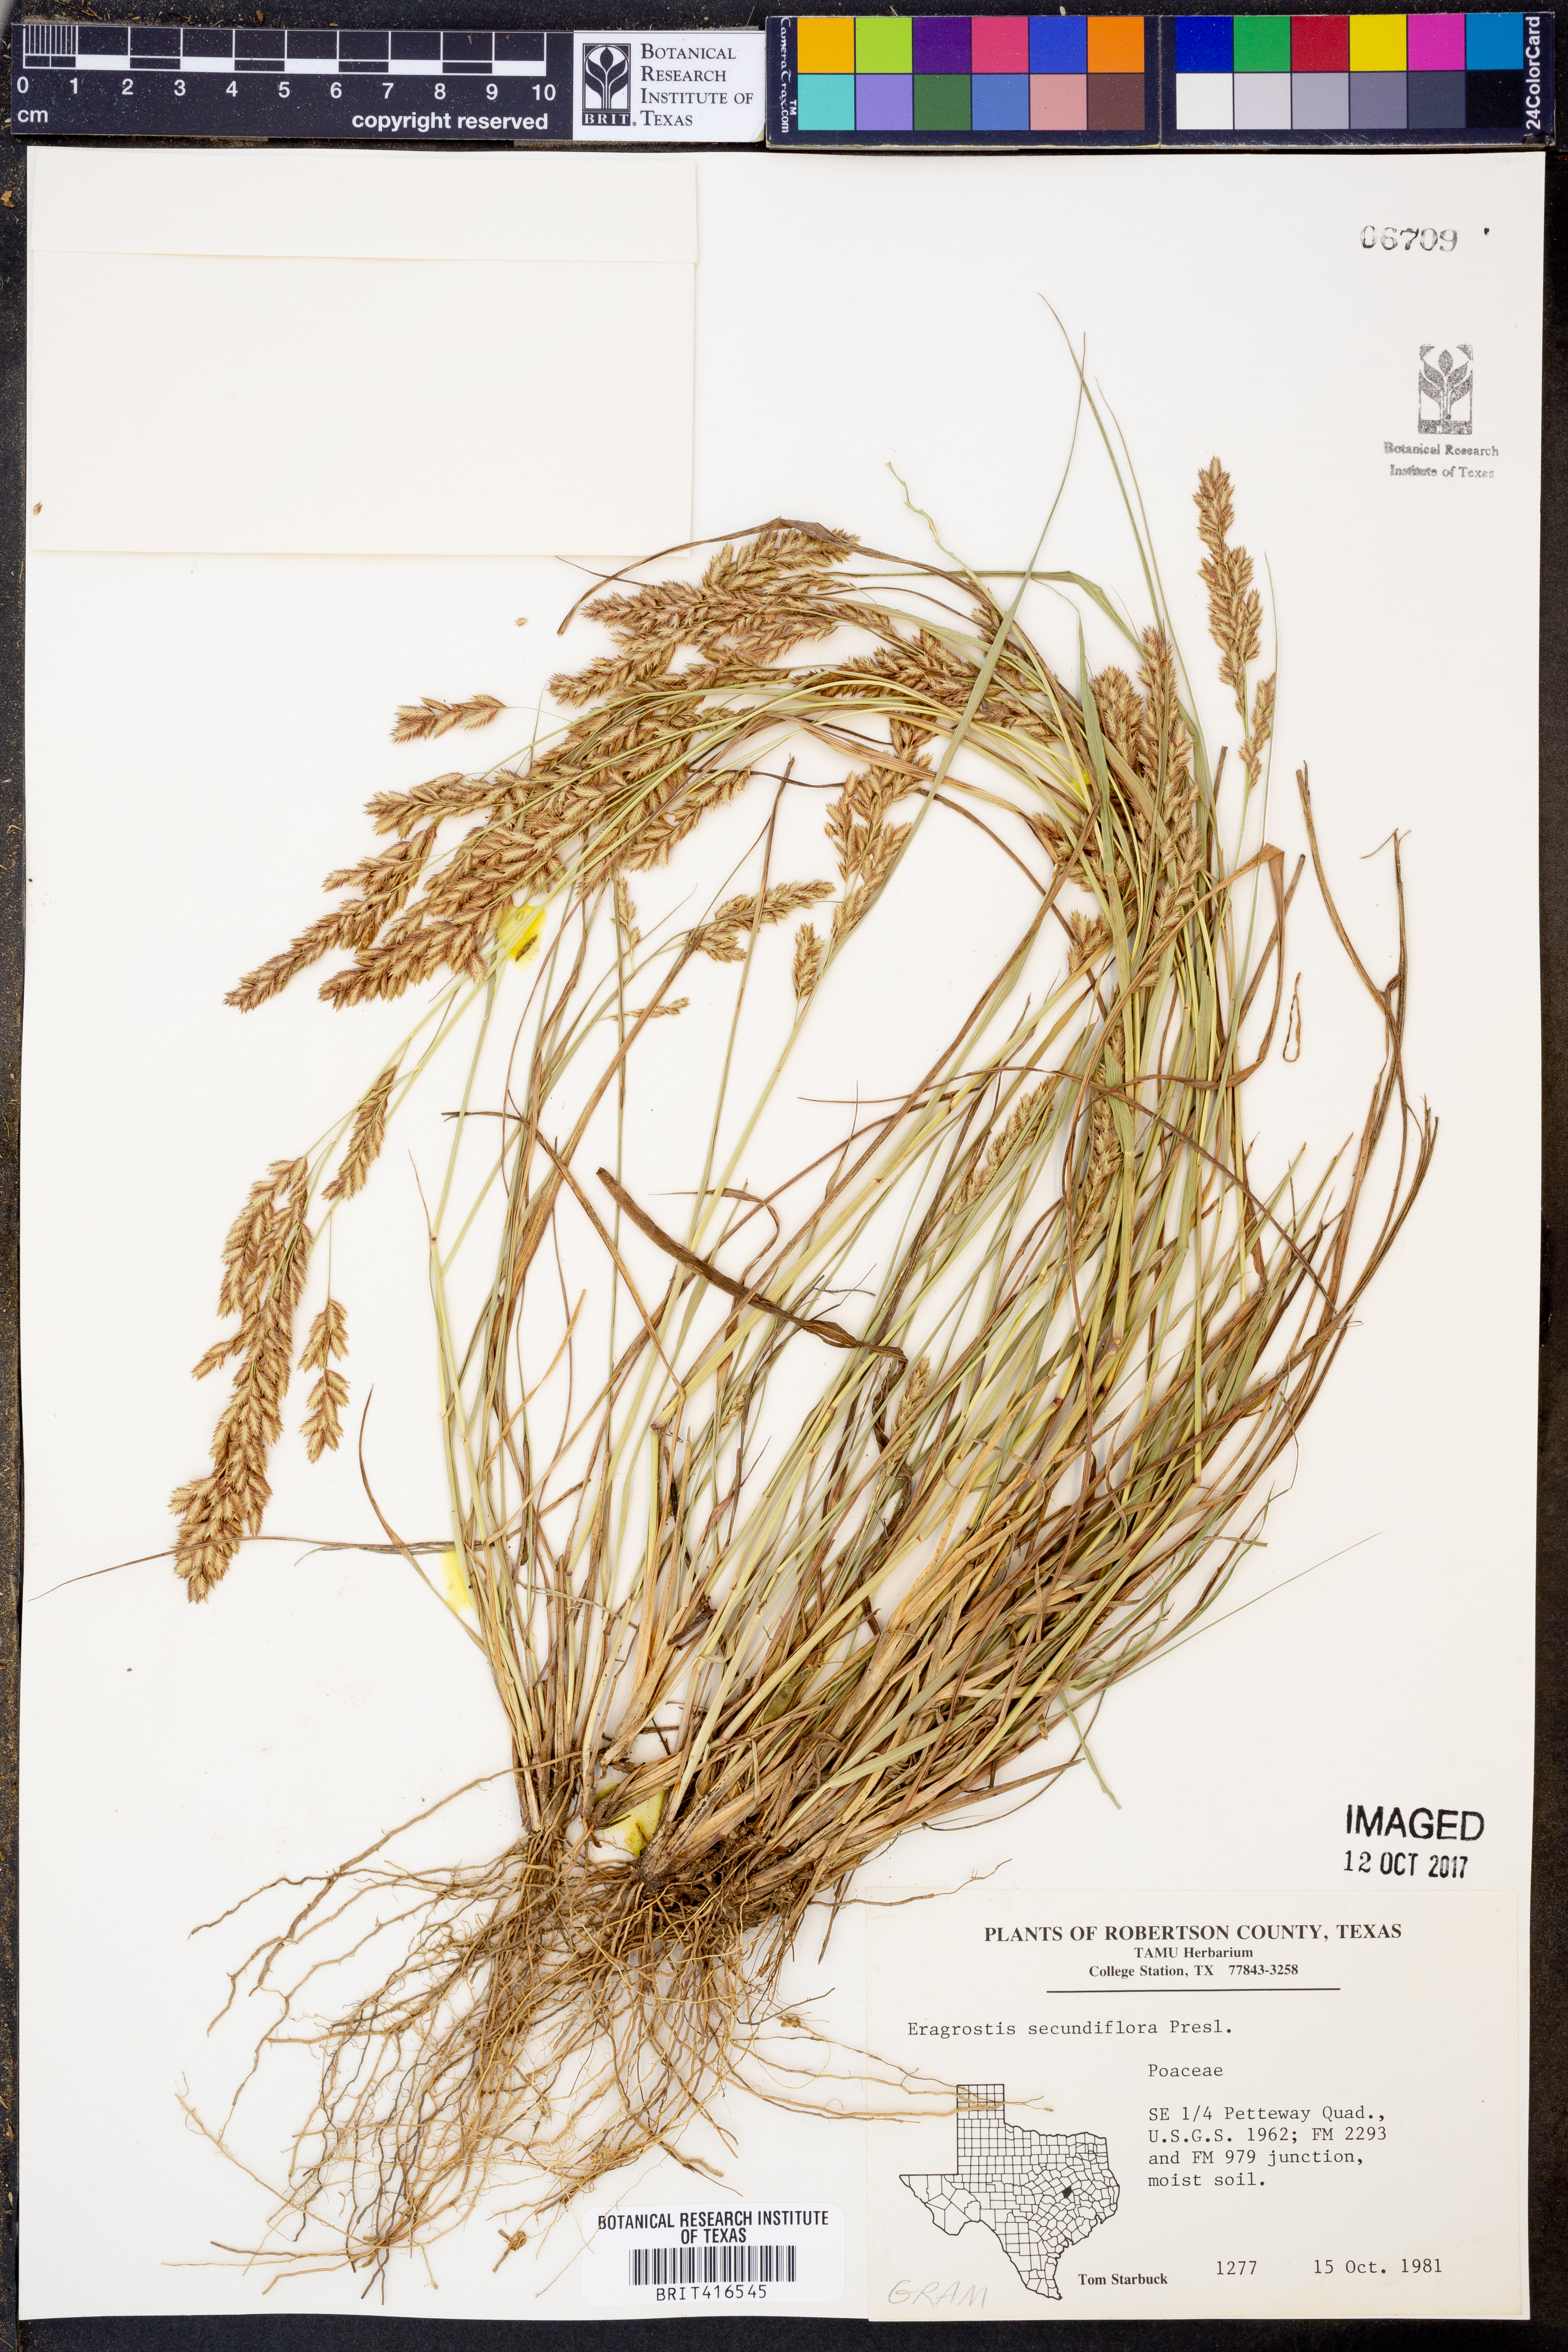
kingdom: Plantae
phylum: Tracheophyta
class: Liliopsida
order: Poales
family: Poaceae
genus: Eragrostis
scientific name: Eragrostis secundiflora
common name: Red love grass
